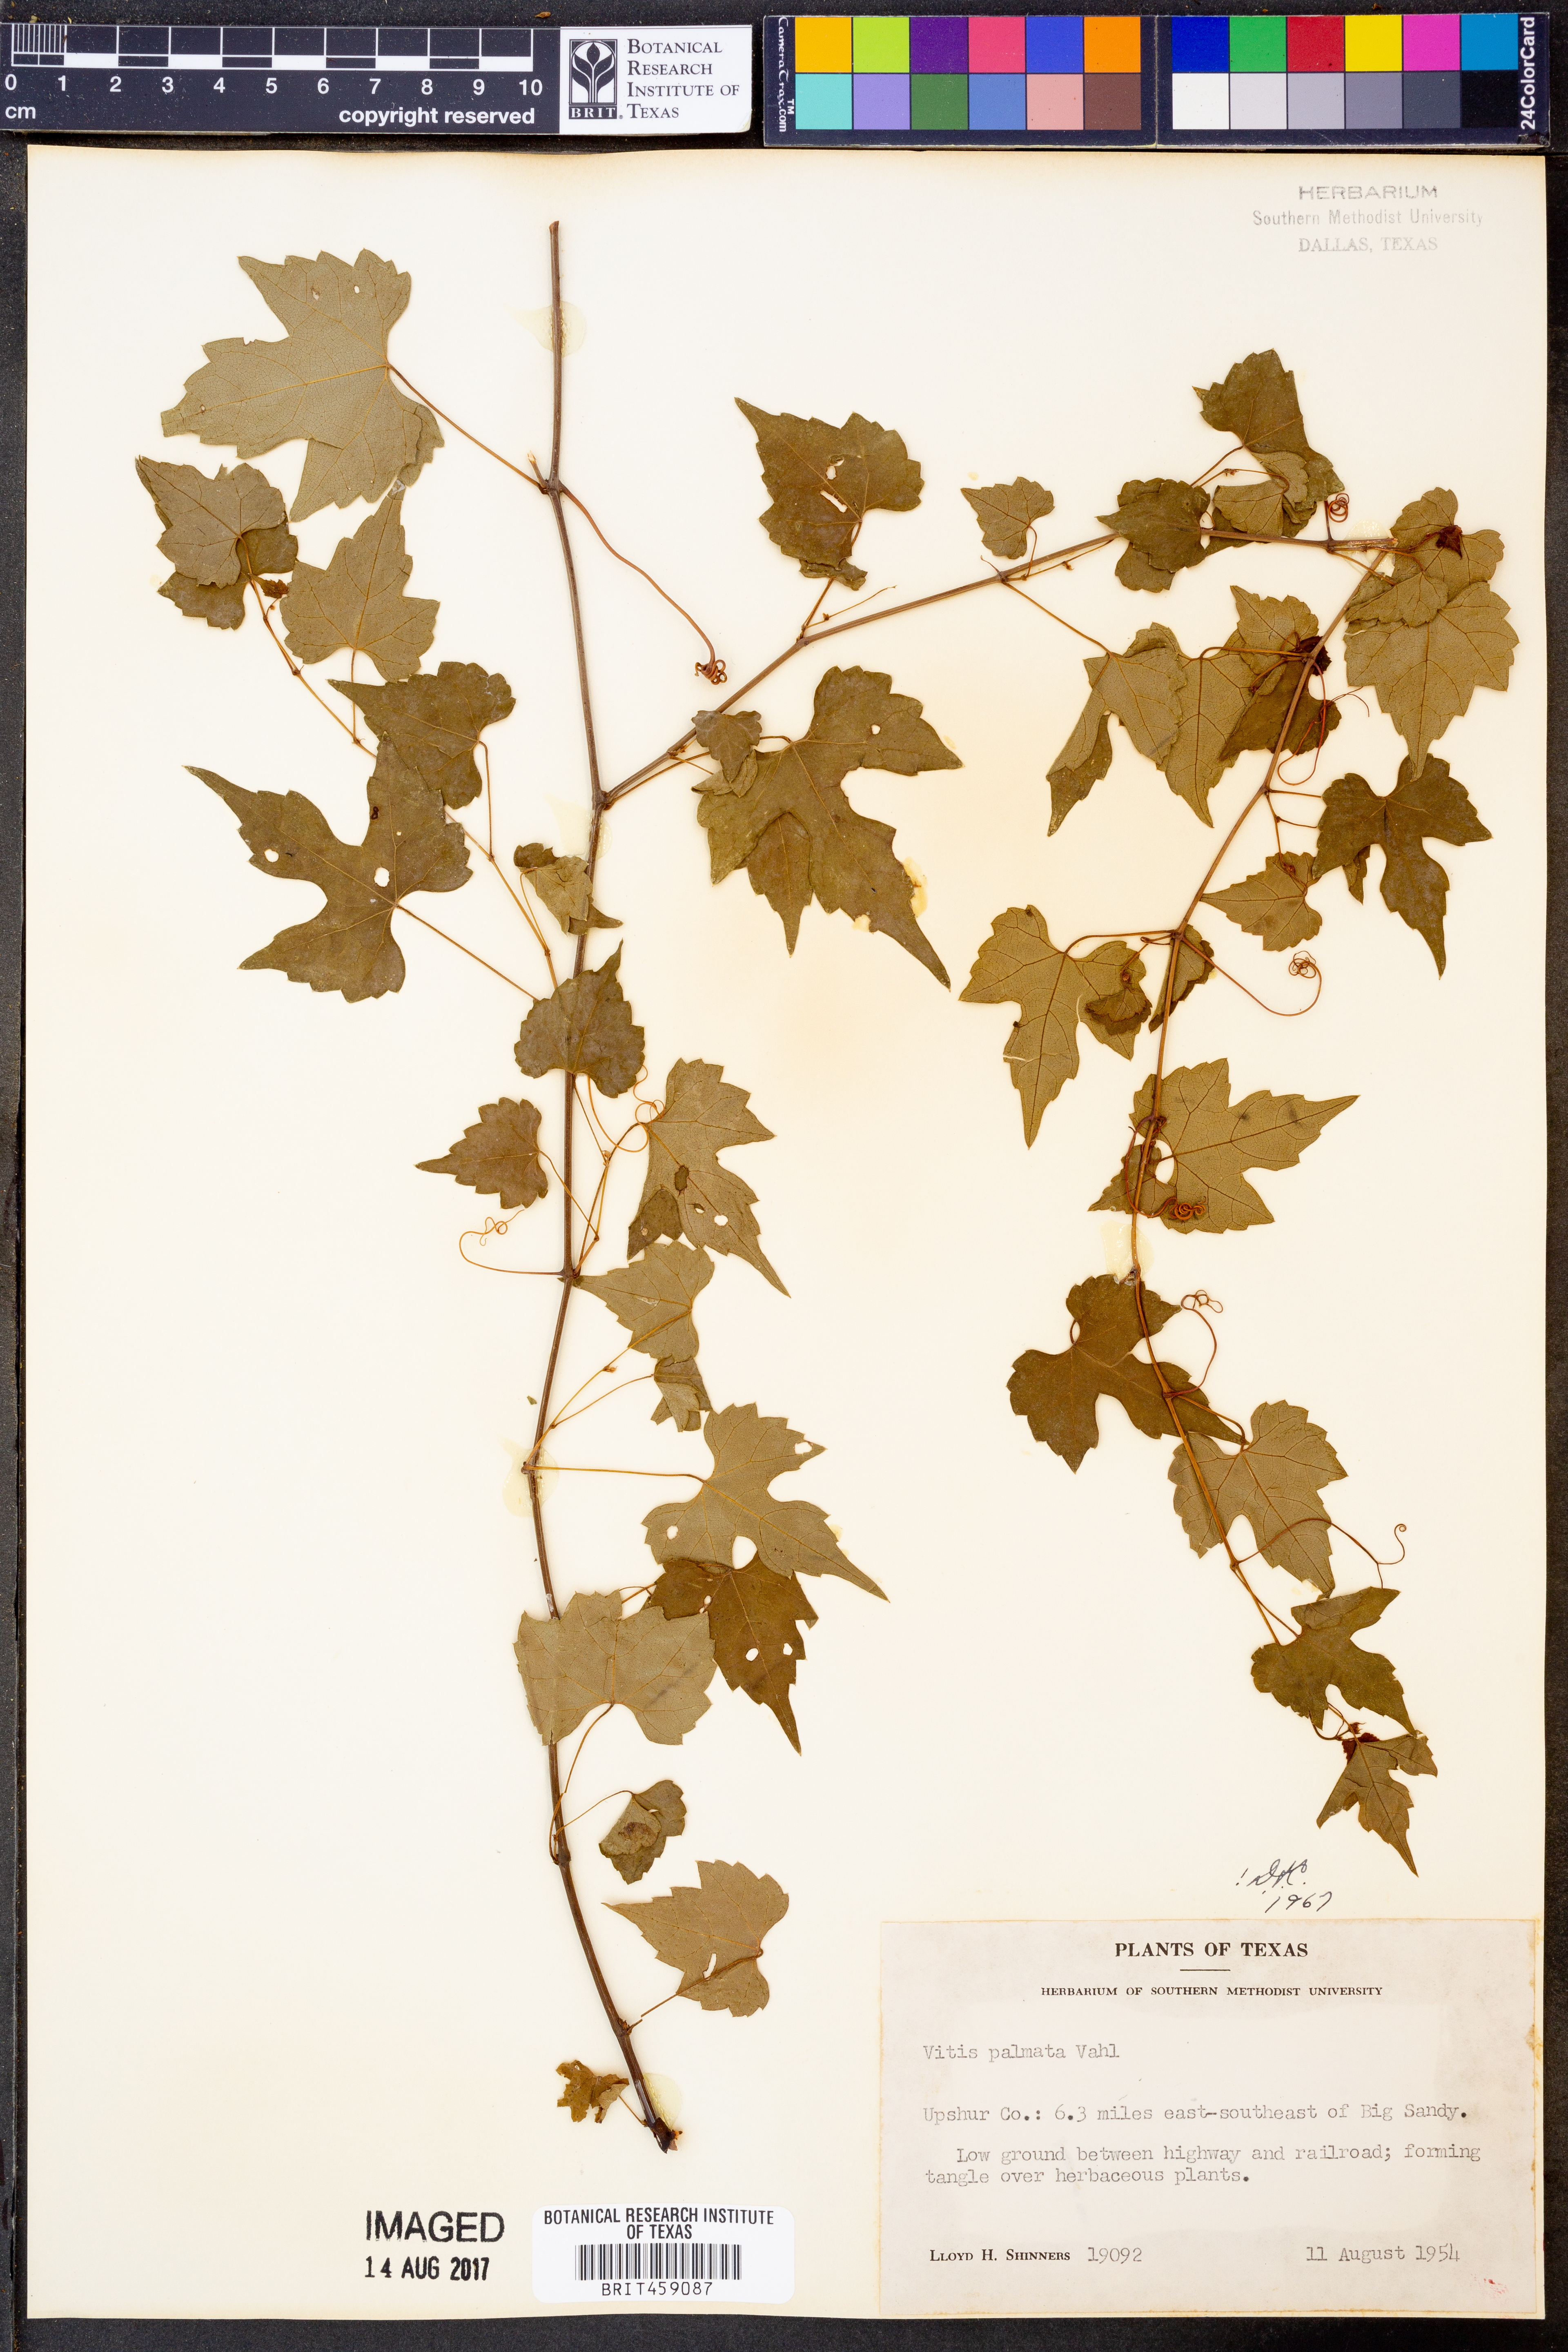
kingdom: Plantae
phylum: Tracheophyta
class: Magnoliopsida
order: Vitales
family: Vitaceae
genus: Vitis
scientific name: Vitis palmata
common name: Catbird grape
